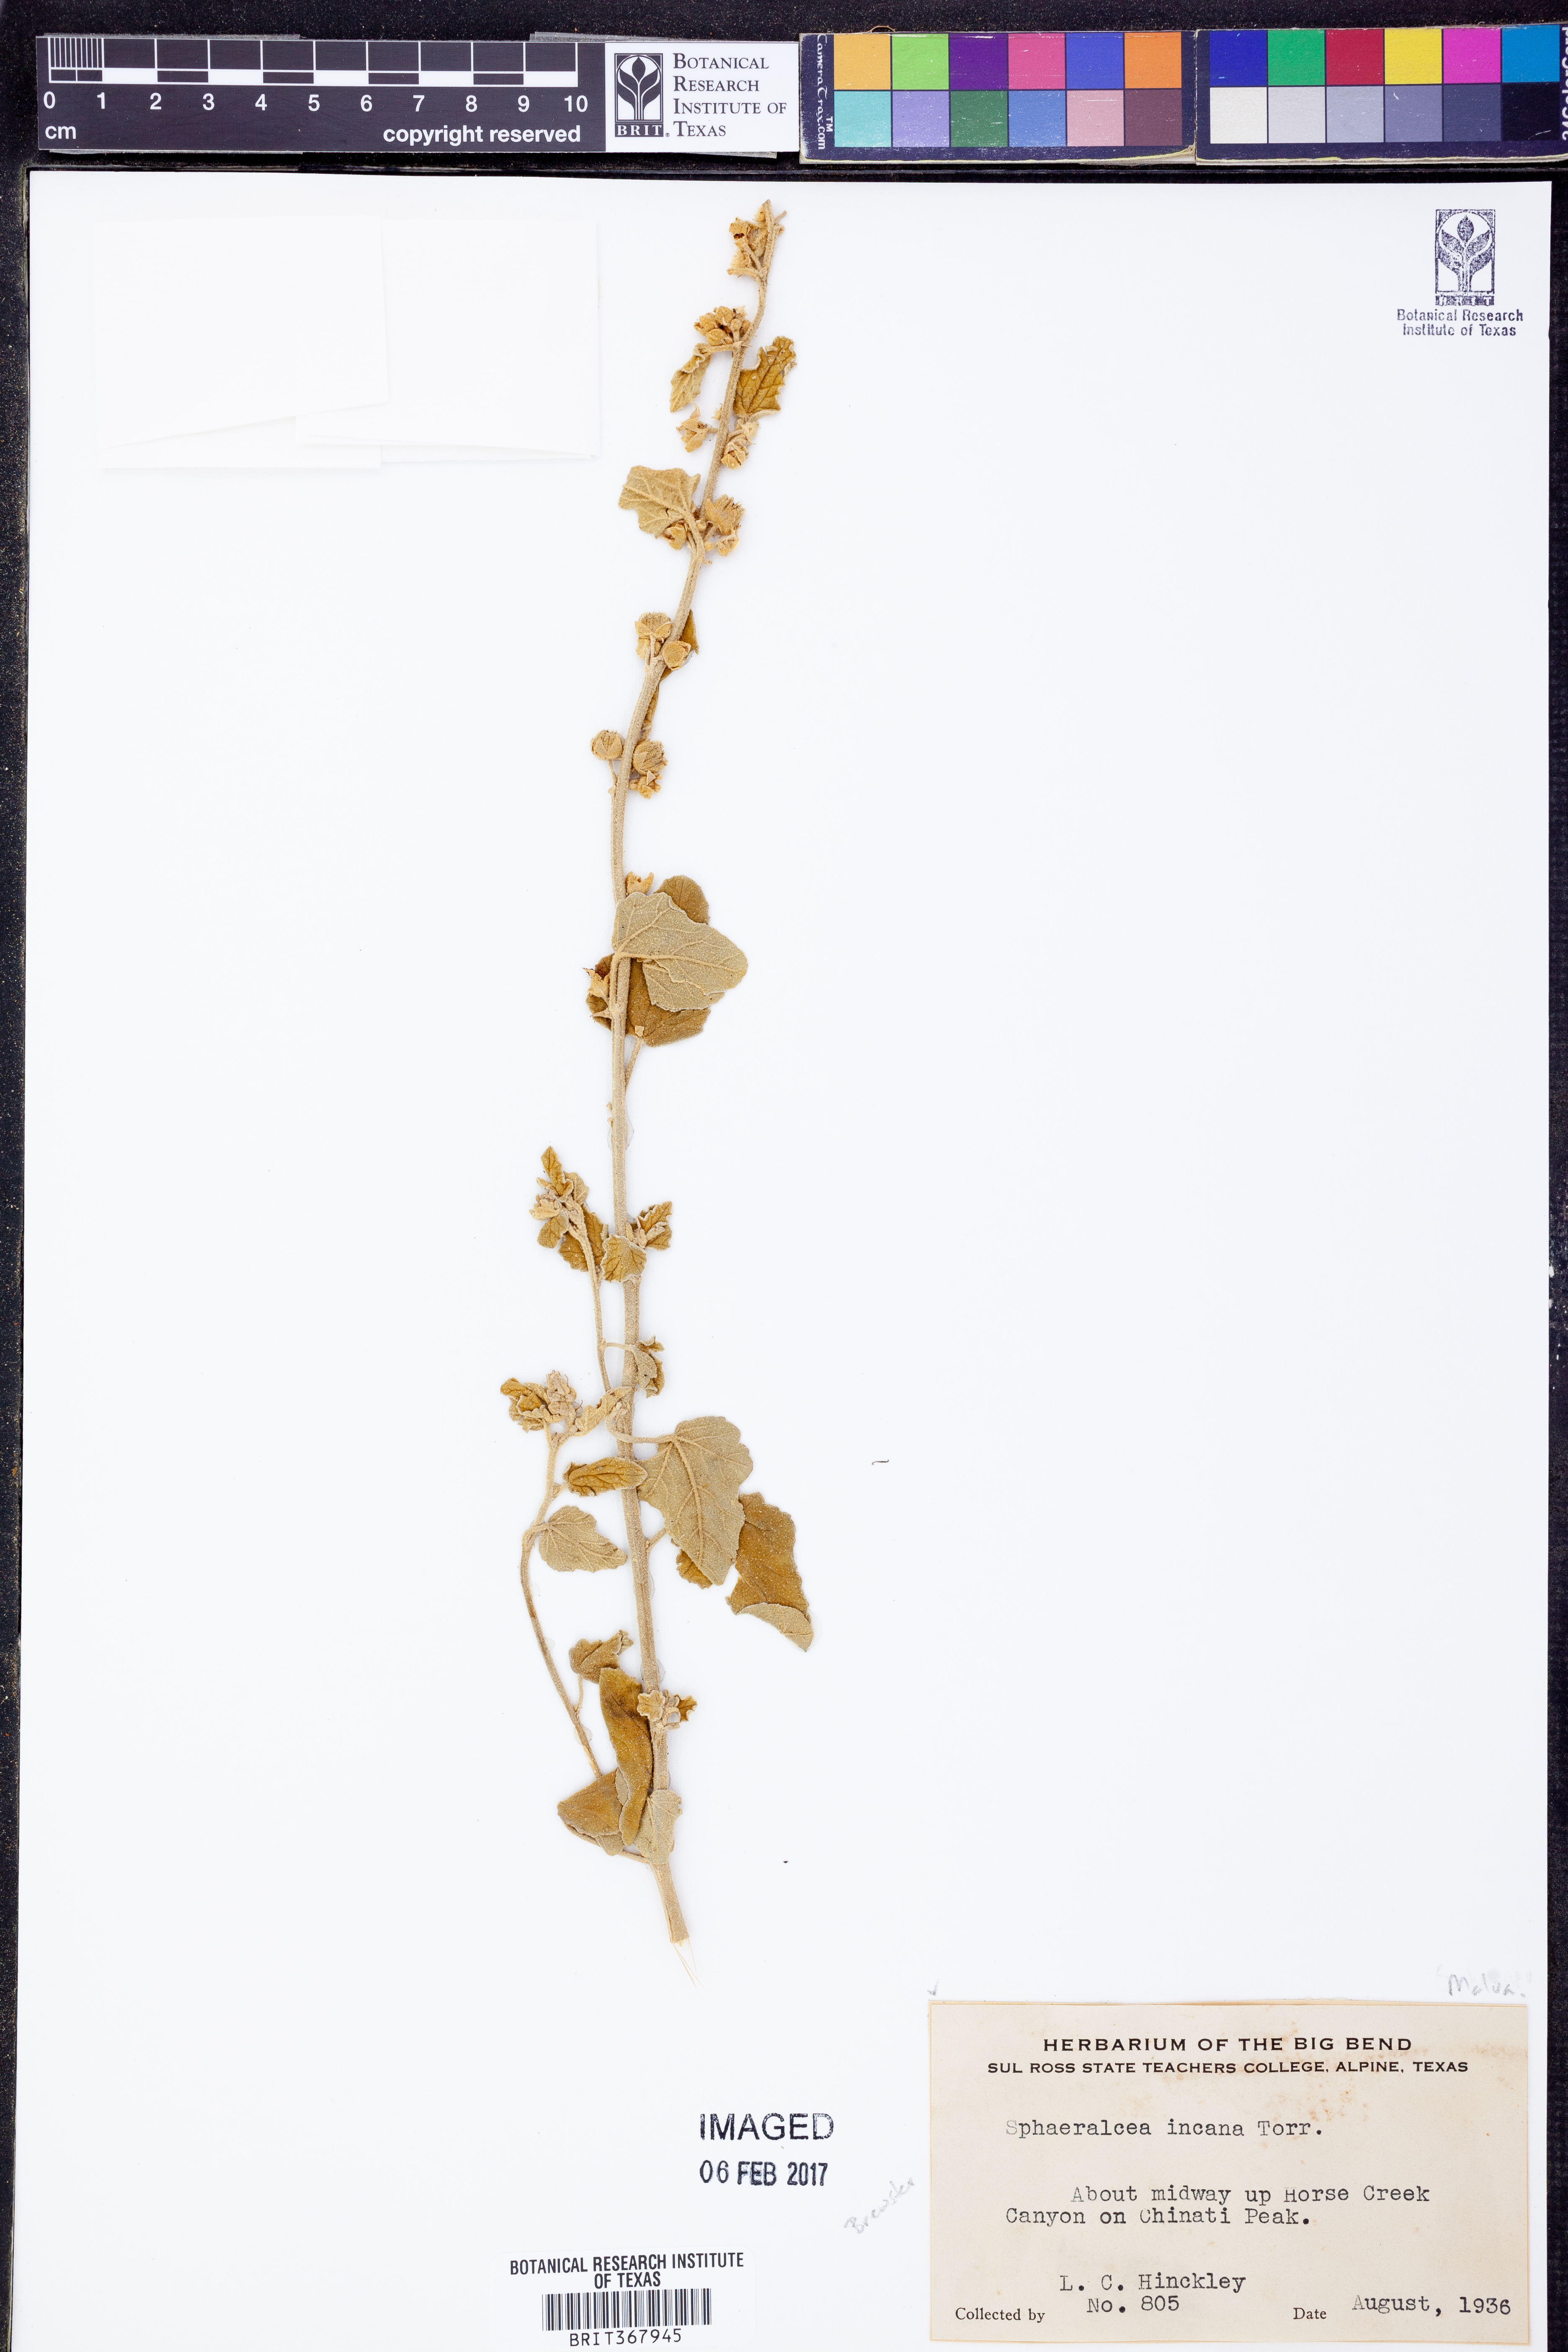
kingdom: Plantae
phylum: Tracheophyta
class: Magnoliopsida
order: Malvales
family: Malvaceae
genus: Sphaeralcea
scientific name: Sphaeralcea incana
